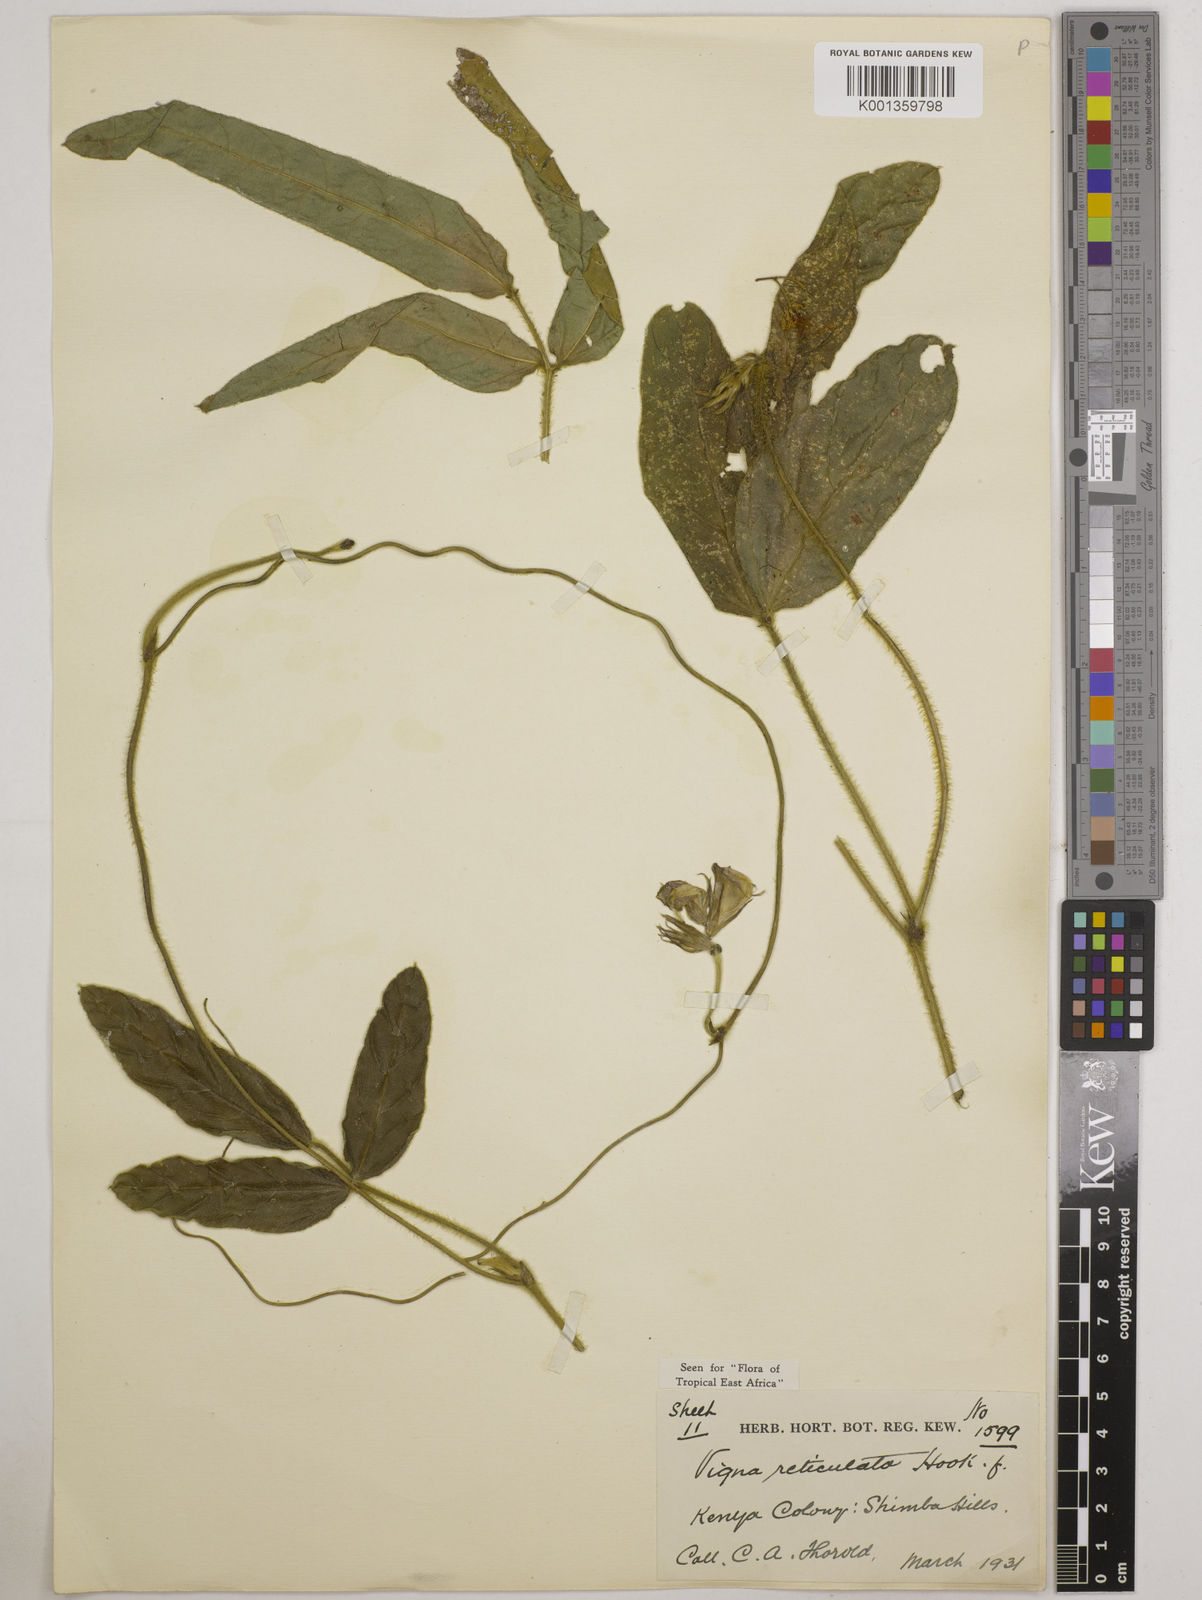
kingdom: Plantae
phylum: Tracheophyta
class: Magnoliopsida
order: Fabales
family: Fabaceae
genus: Vigna
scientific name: Vigna reticulata
